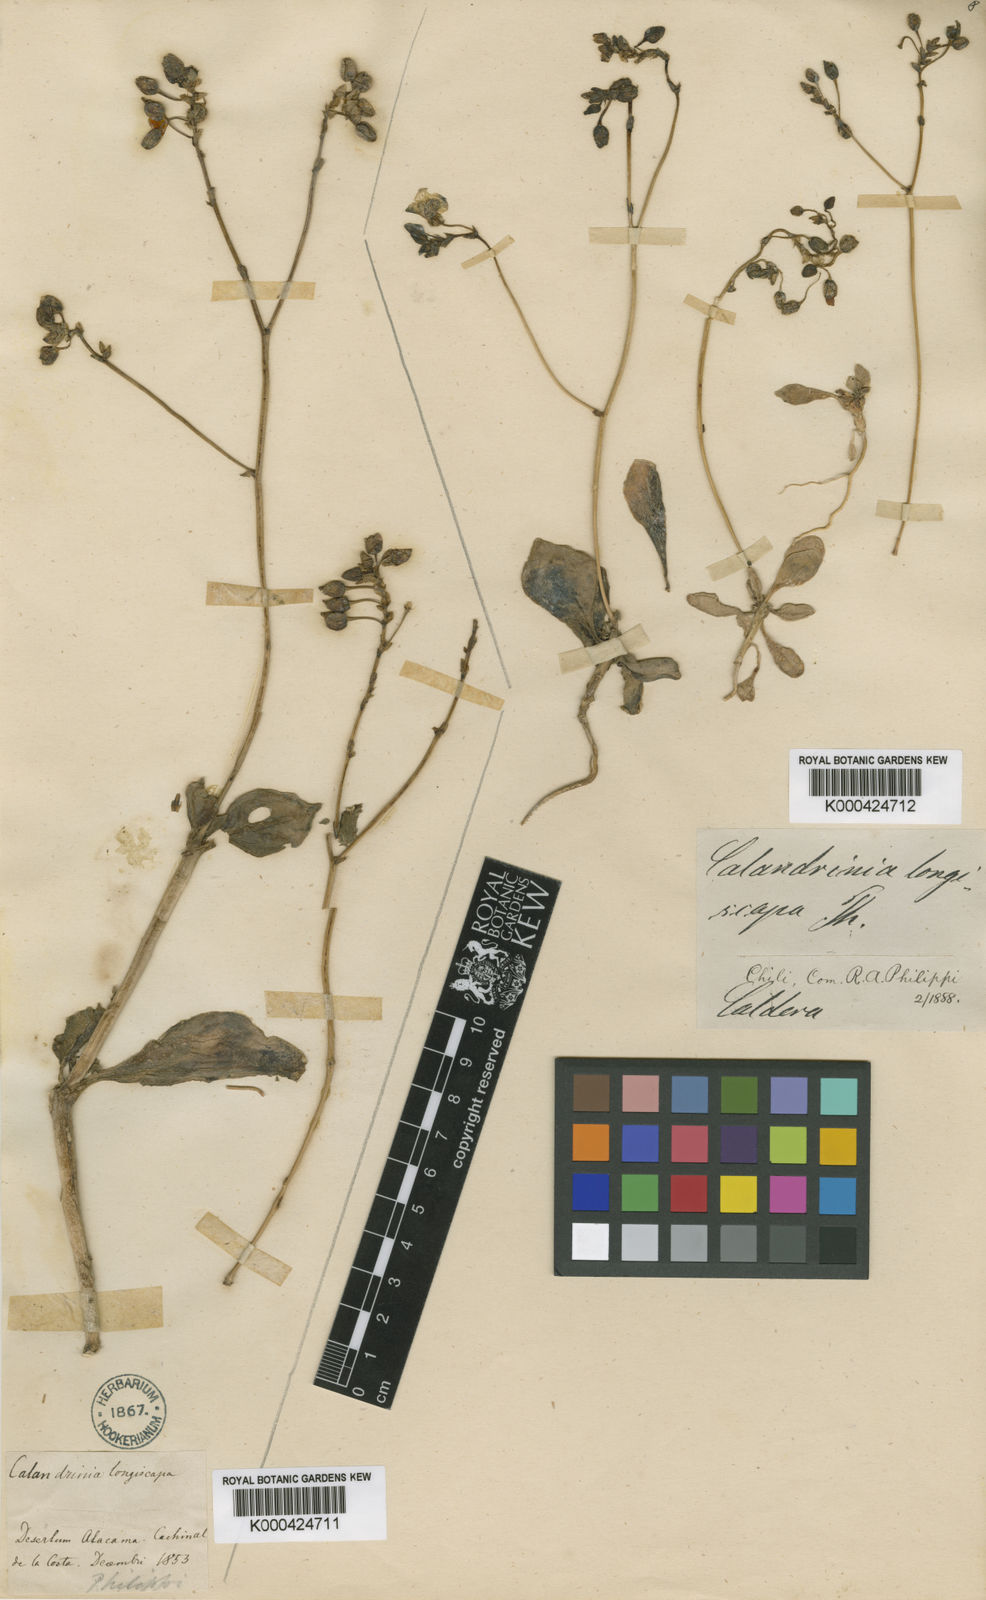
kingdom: Plantae
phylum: Tracheophyta
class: Magnoliopsida
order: Caryophyllales
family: Montiaceae
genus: Cistanthe
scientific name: Cistanthe
